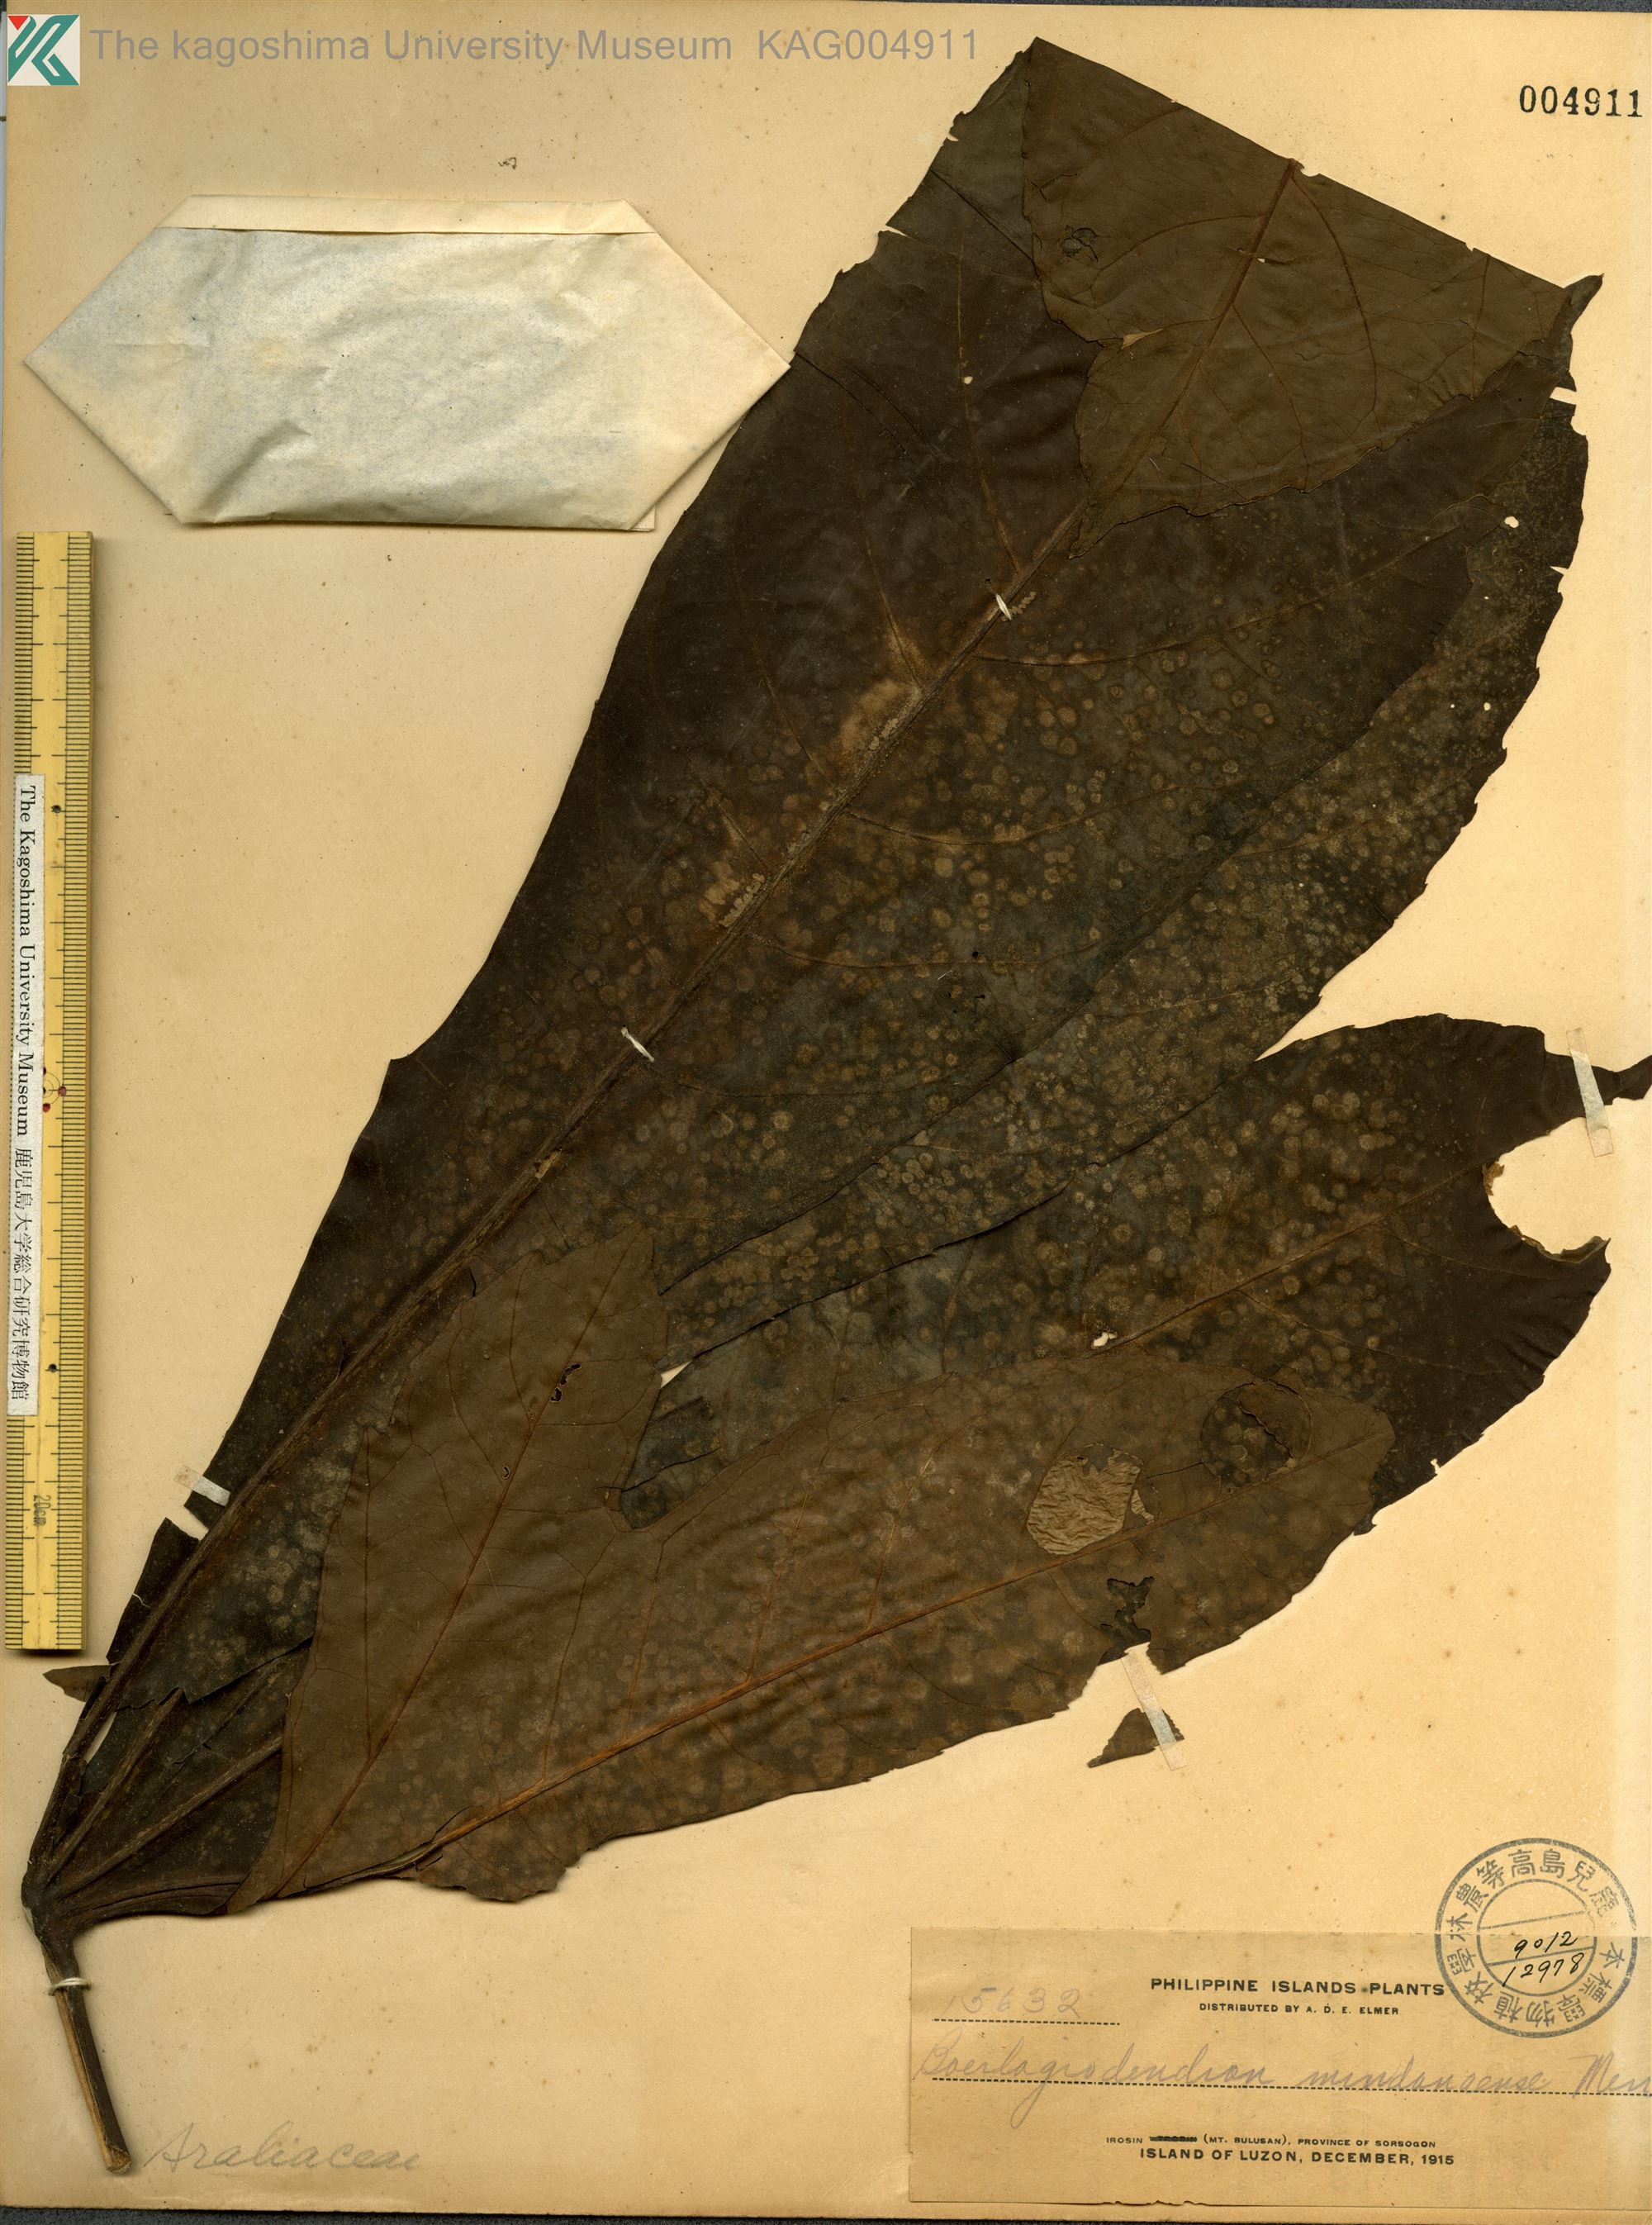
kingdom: Plantae
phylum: Tracheophyta
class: Magnoliopsida
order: Apiales
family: Araliaceae
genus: Osmoxylon
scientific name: Osmoxylon eminens
